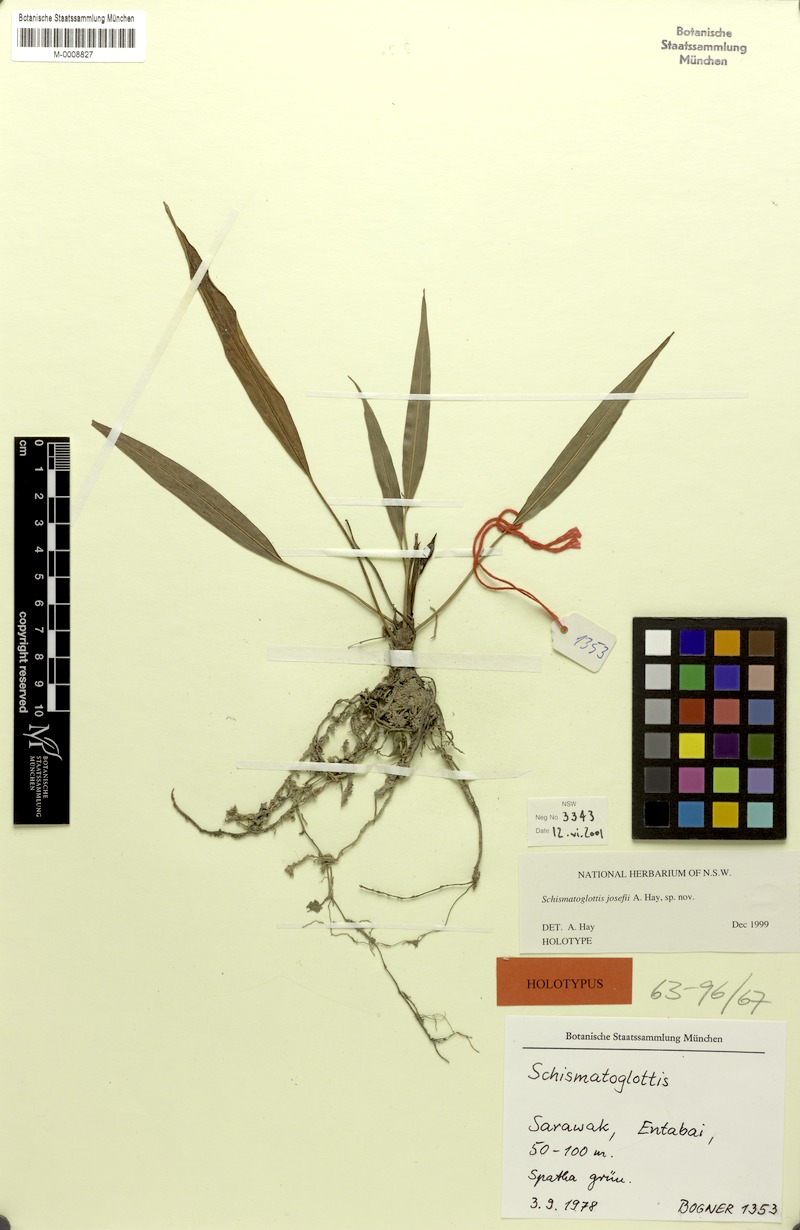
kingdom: Plantae
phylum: Tracheophyta
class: Liliopsida
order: Alismatales
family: Araceae
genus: Schottarum
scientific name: Schottarum josefii
